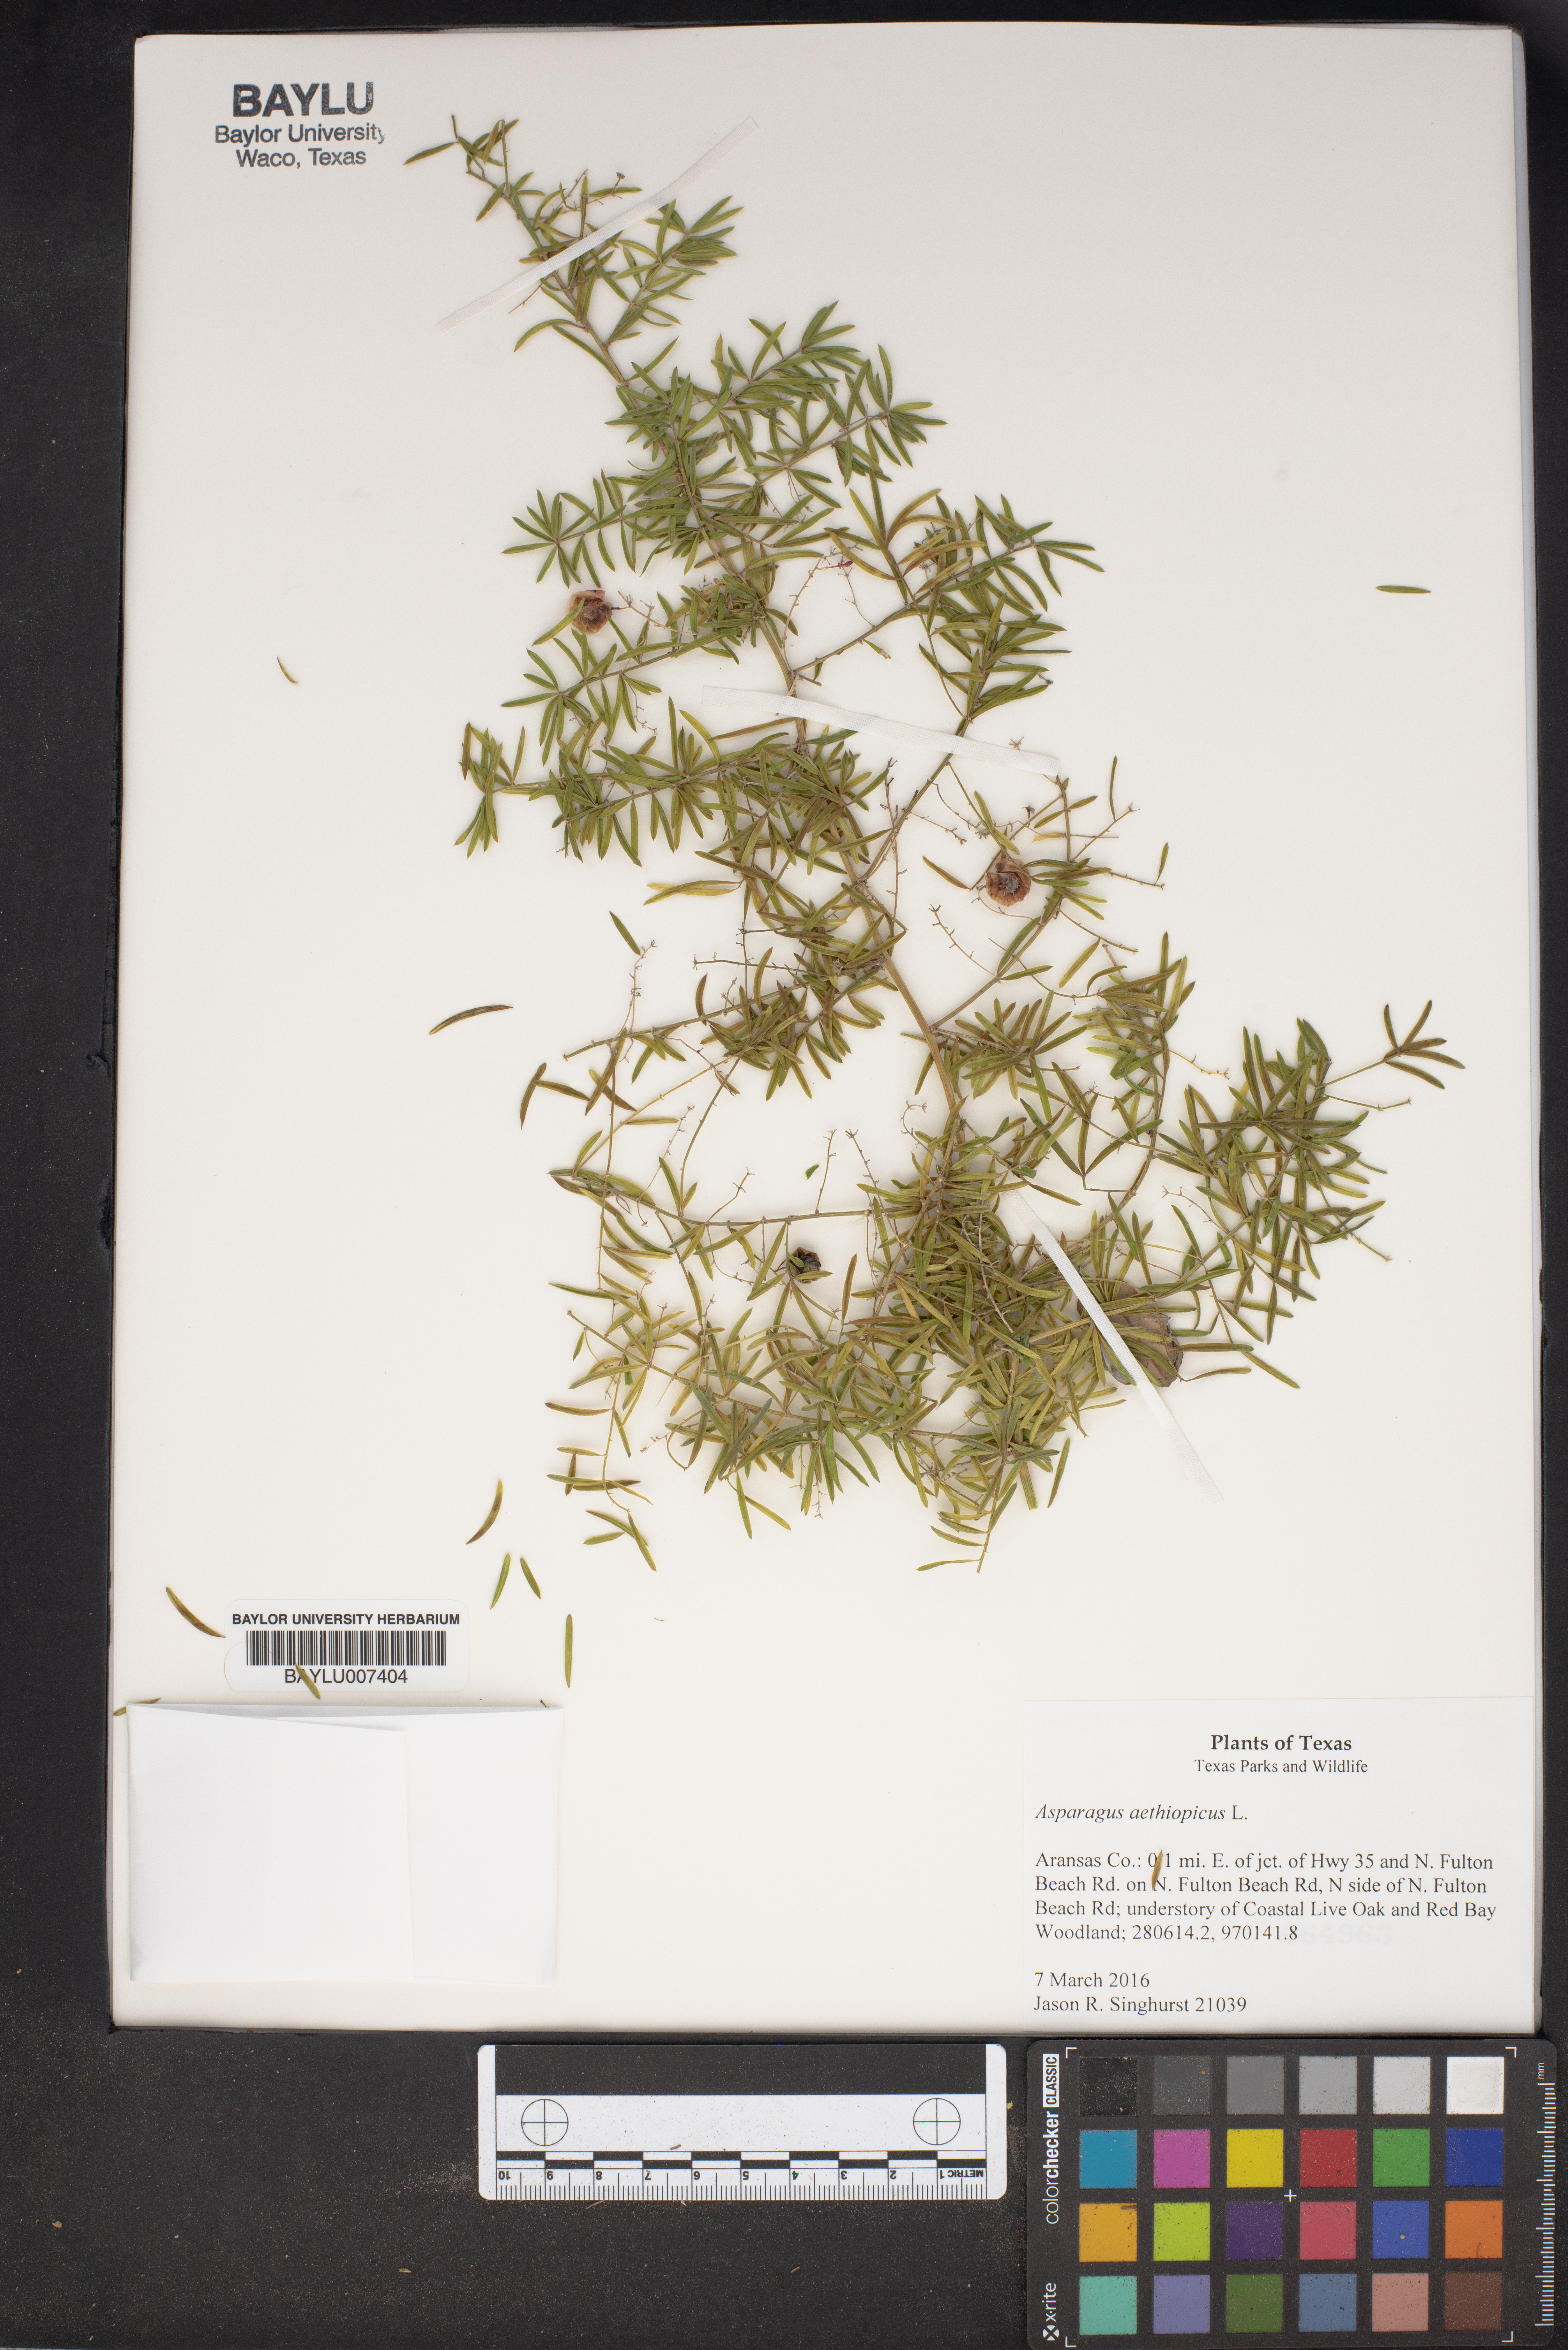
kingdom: Plantae
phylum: Tracheophyta
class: Liliopsida
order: Asparagales
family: Asparagaceae
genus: Asparagus
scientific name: Asparagus aethiopicus
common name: Sprenger's asparagus fern
